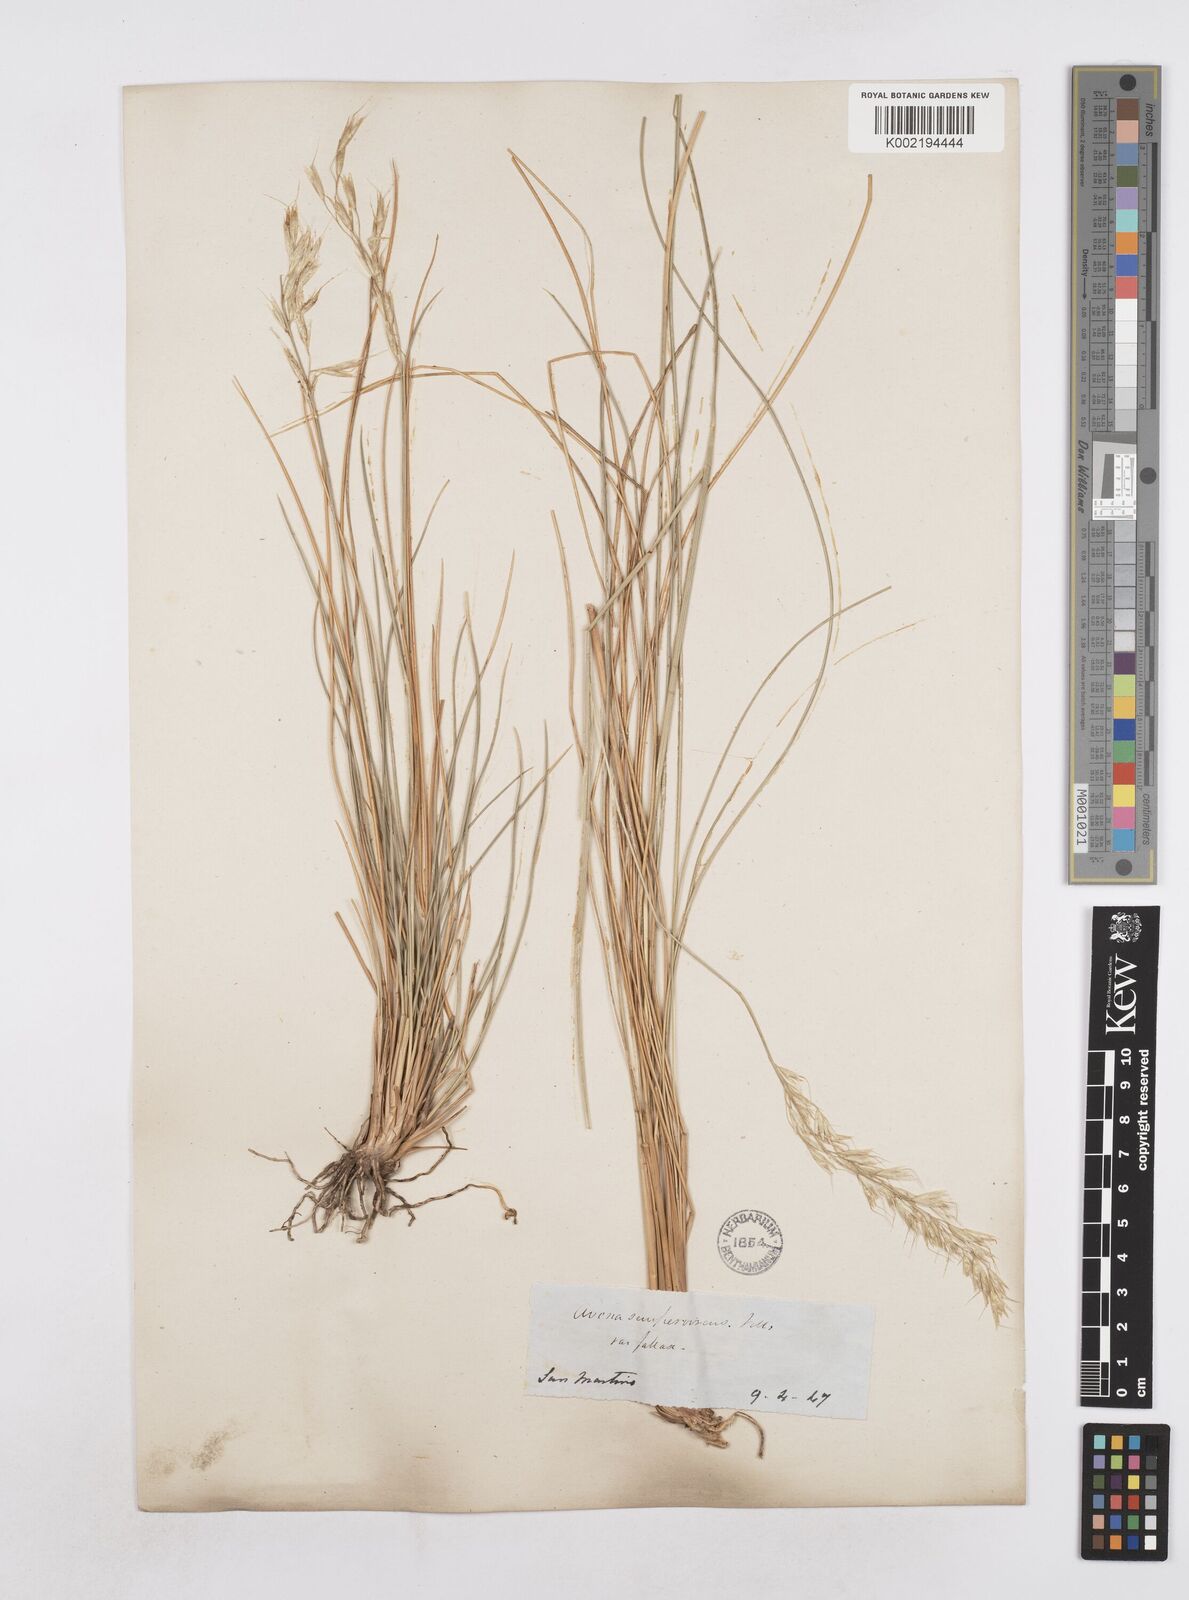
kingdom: Plantae
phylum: Tracheophyta
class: Liliopsida
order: Poales
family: Poaceae
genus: Helictotrichon
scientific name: Helictotrichon sempervirens
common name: Blue oat-grass
